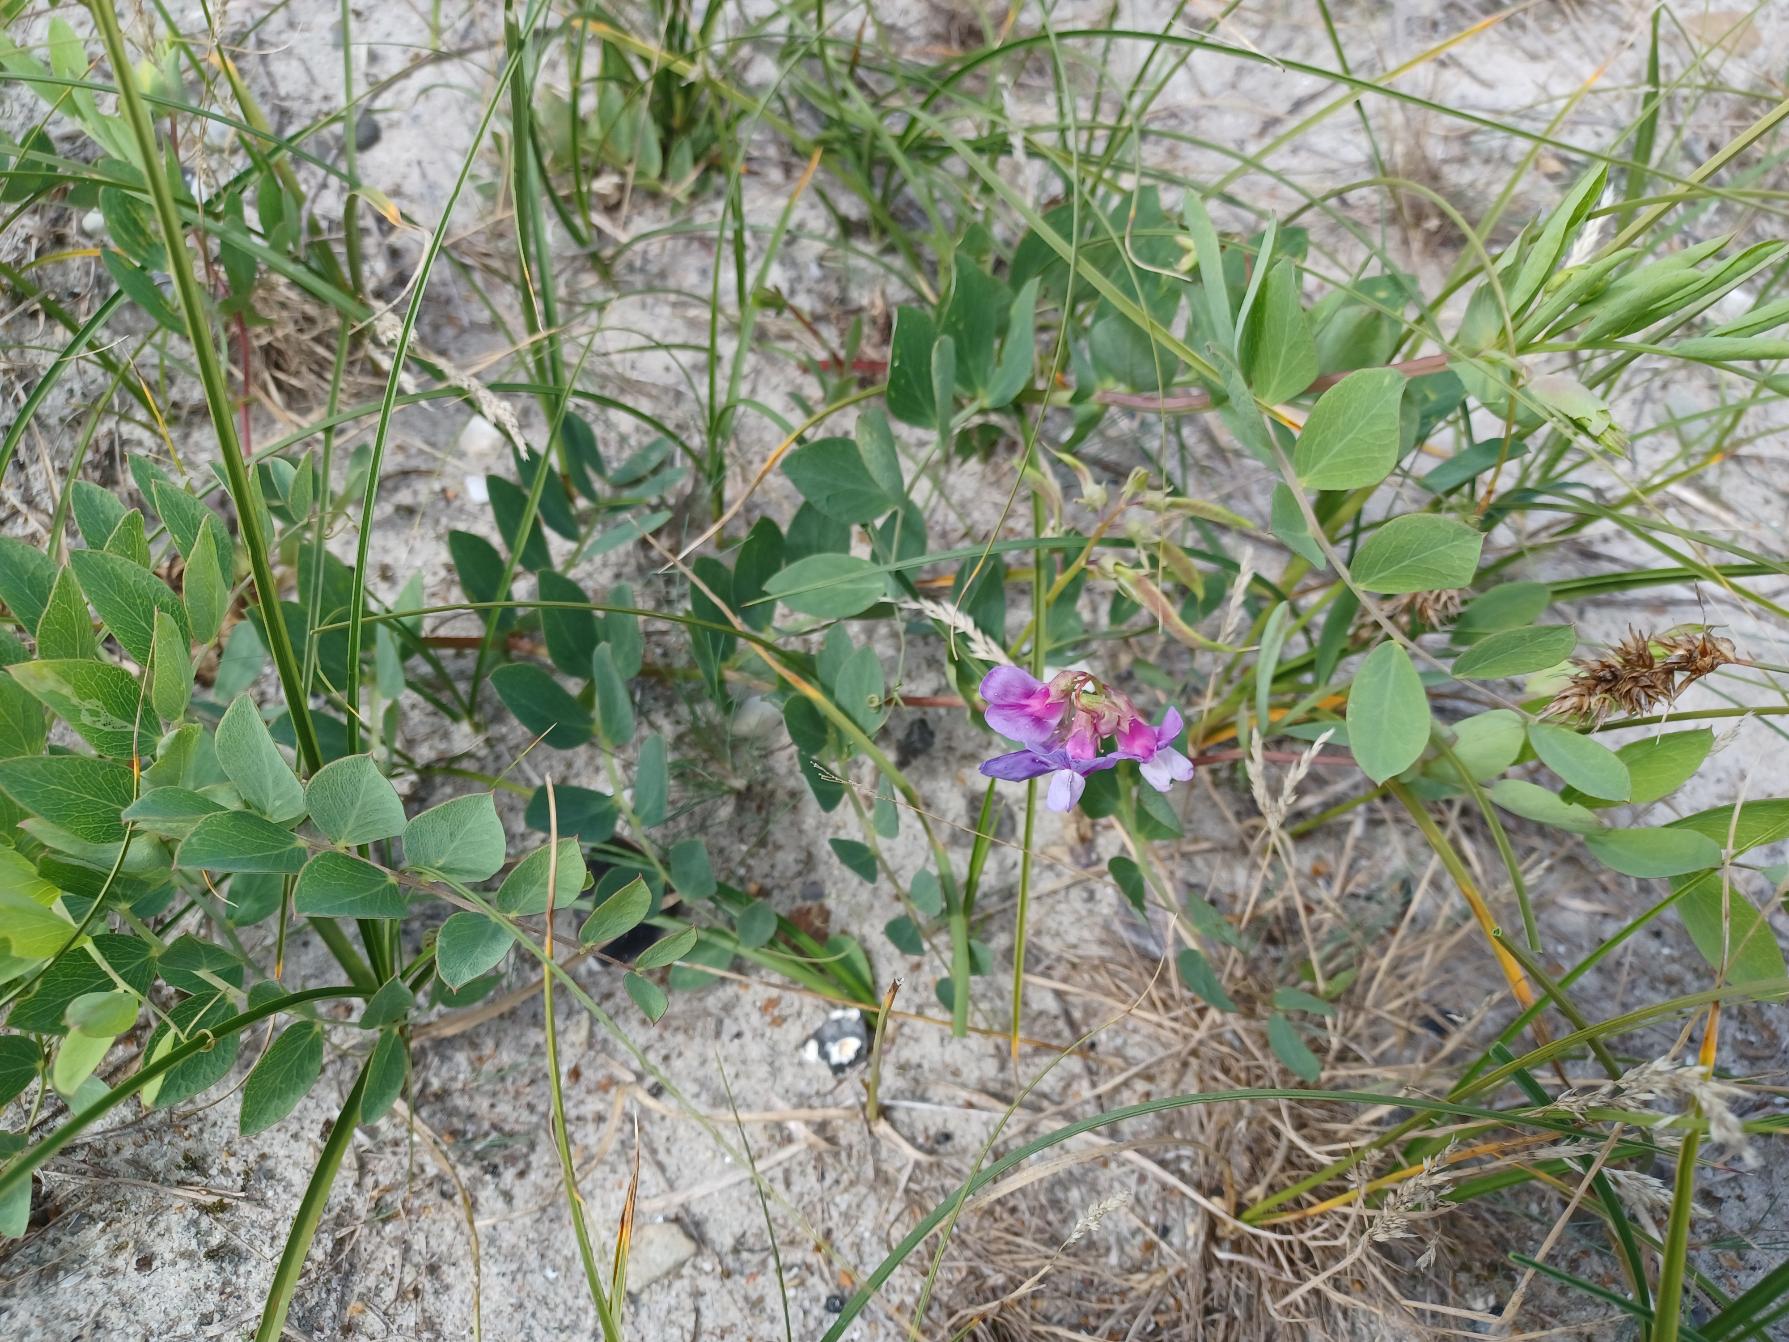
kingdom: Plantae
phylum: Tracheophyta
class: Magnoliopsida
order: Fabales
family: Fabaceae
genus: Lathyrus
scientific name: Lathyrus japonicus
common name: Klit-fladbælg
